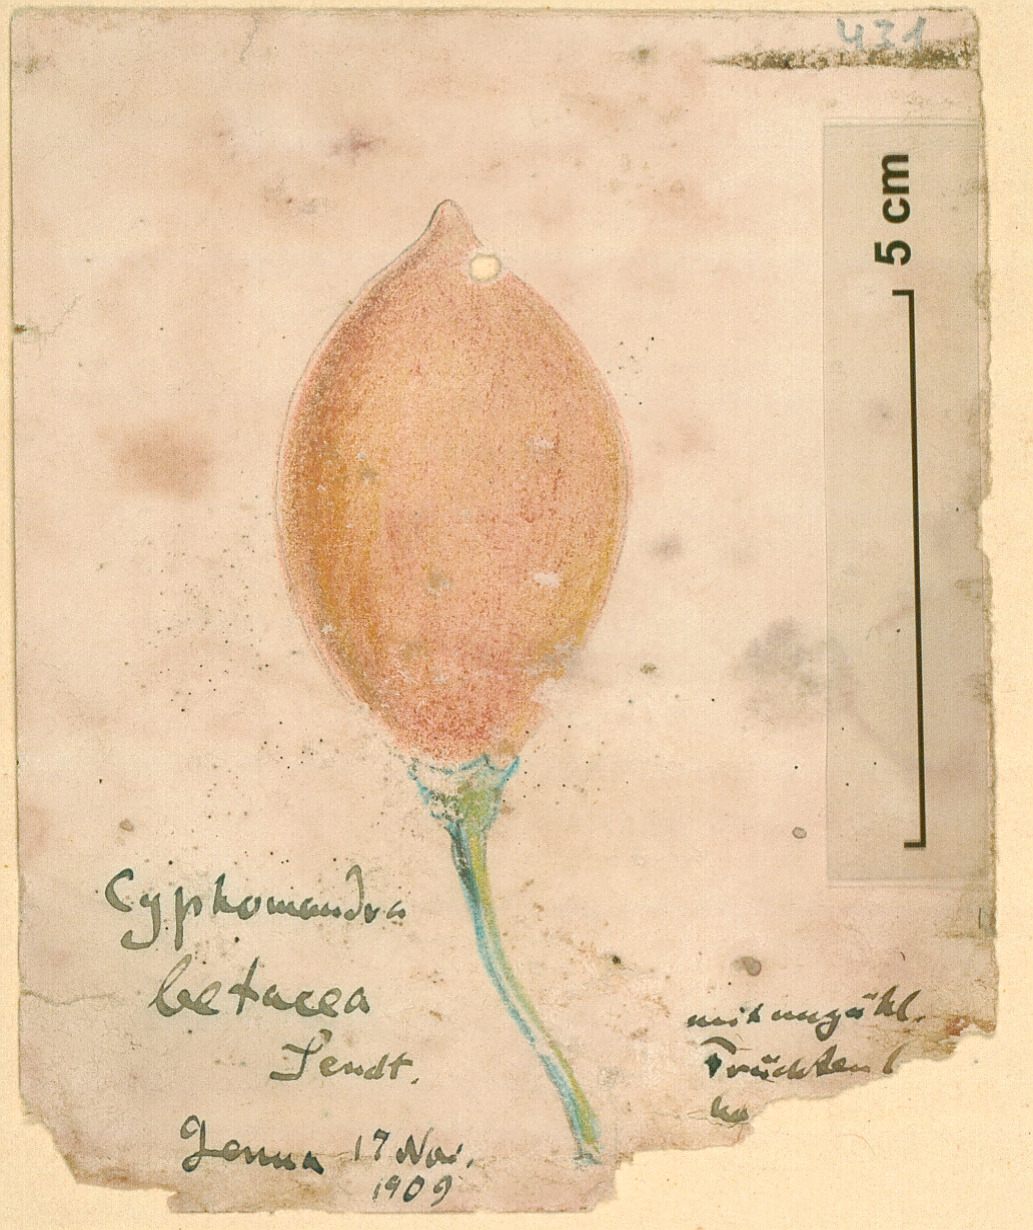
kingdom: Plantae
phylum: Tracheophyta
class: Magnoliopsida
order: Solanales
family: Solanaceae
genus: Solanum
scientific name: Solanum betaceum
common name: Tamarillo
